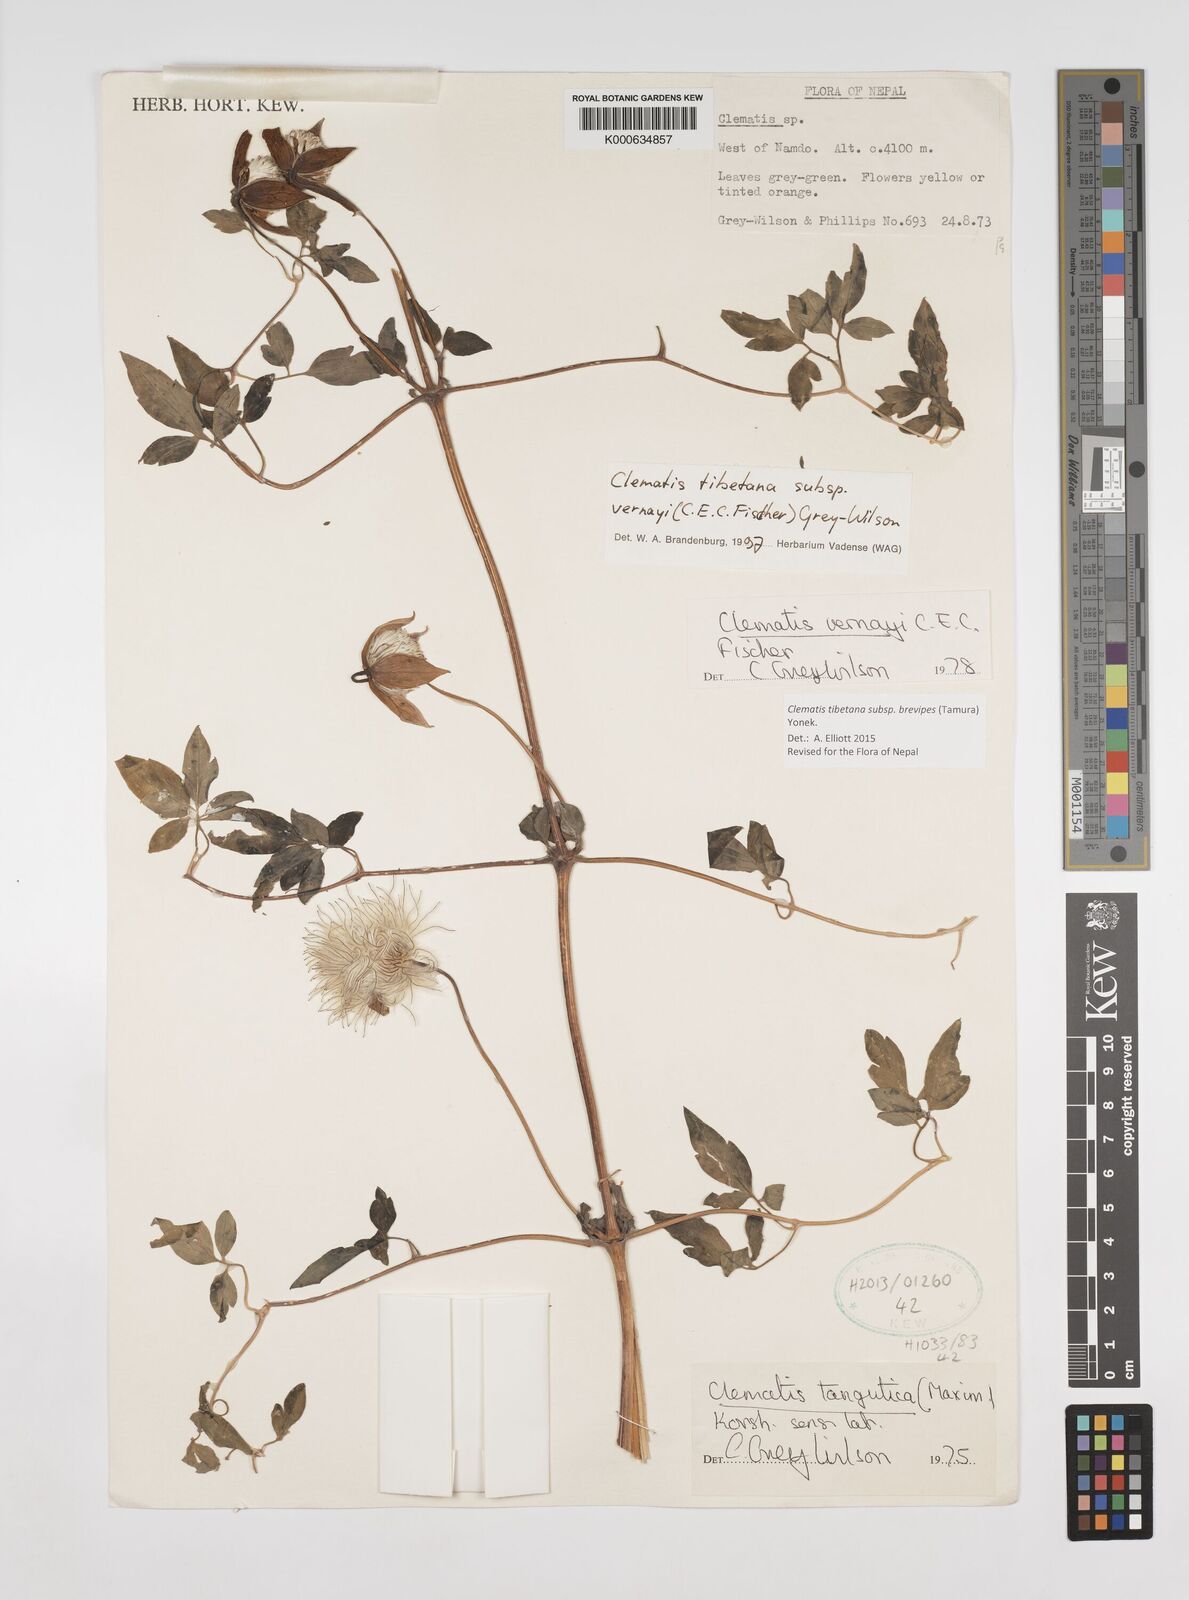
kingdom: Plantae
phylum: Tracheophyta
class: Magnoliopsida
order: Ranunculales
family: Ranunculaceae
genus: Clematis
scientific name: Clematis tibetana
